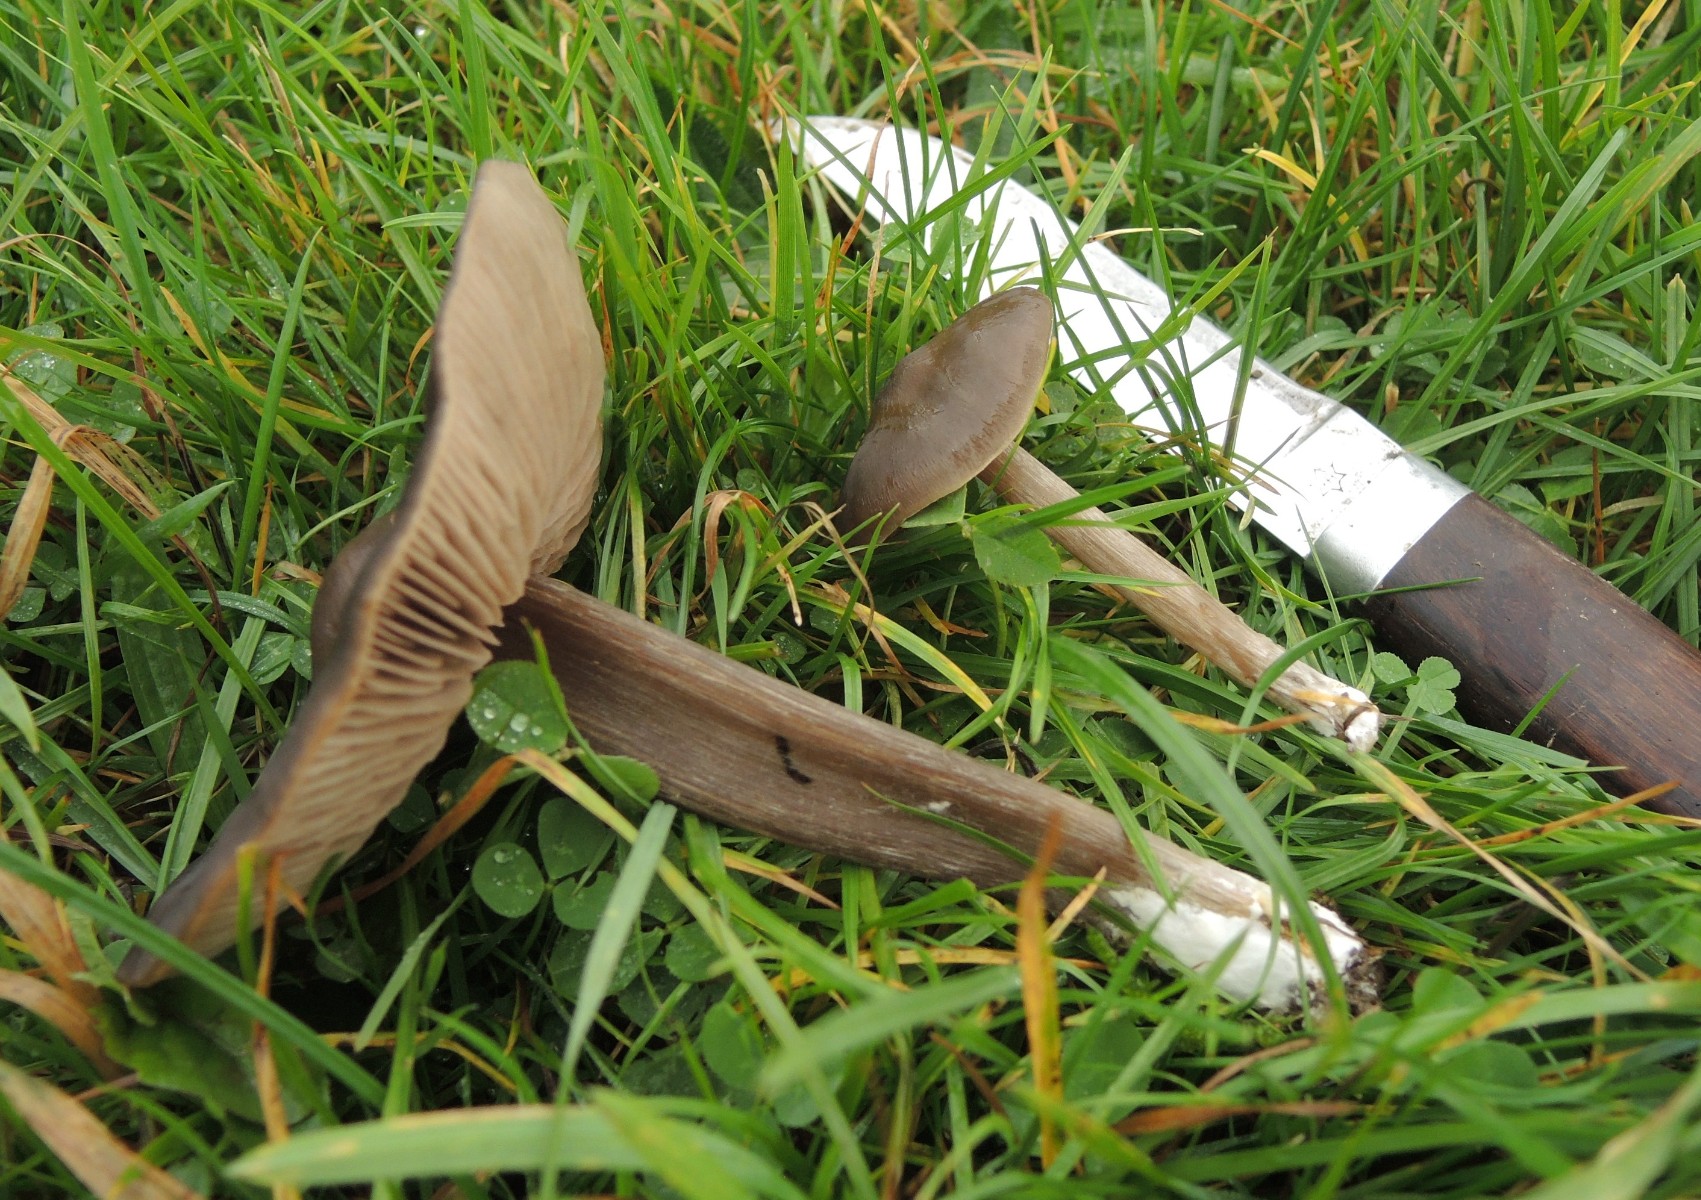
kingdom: Fungi
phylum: Basidiomycota
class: Agaricomycetes
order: Agaricales
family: Entolomataceae
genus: Entoloma
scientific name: Entoloma sericeum
